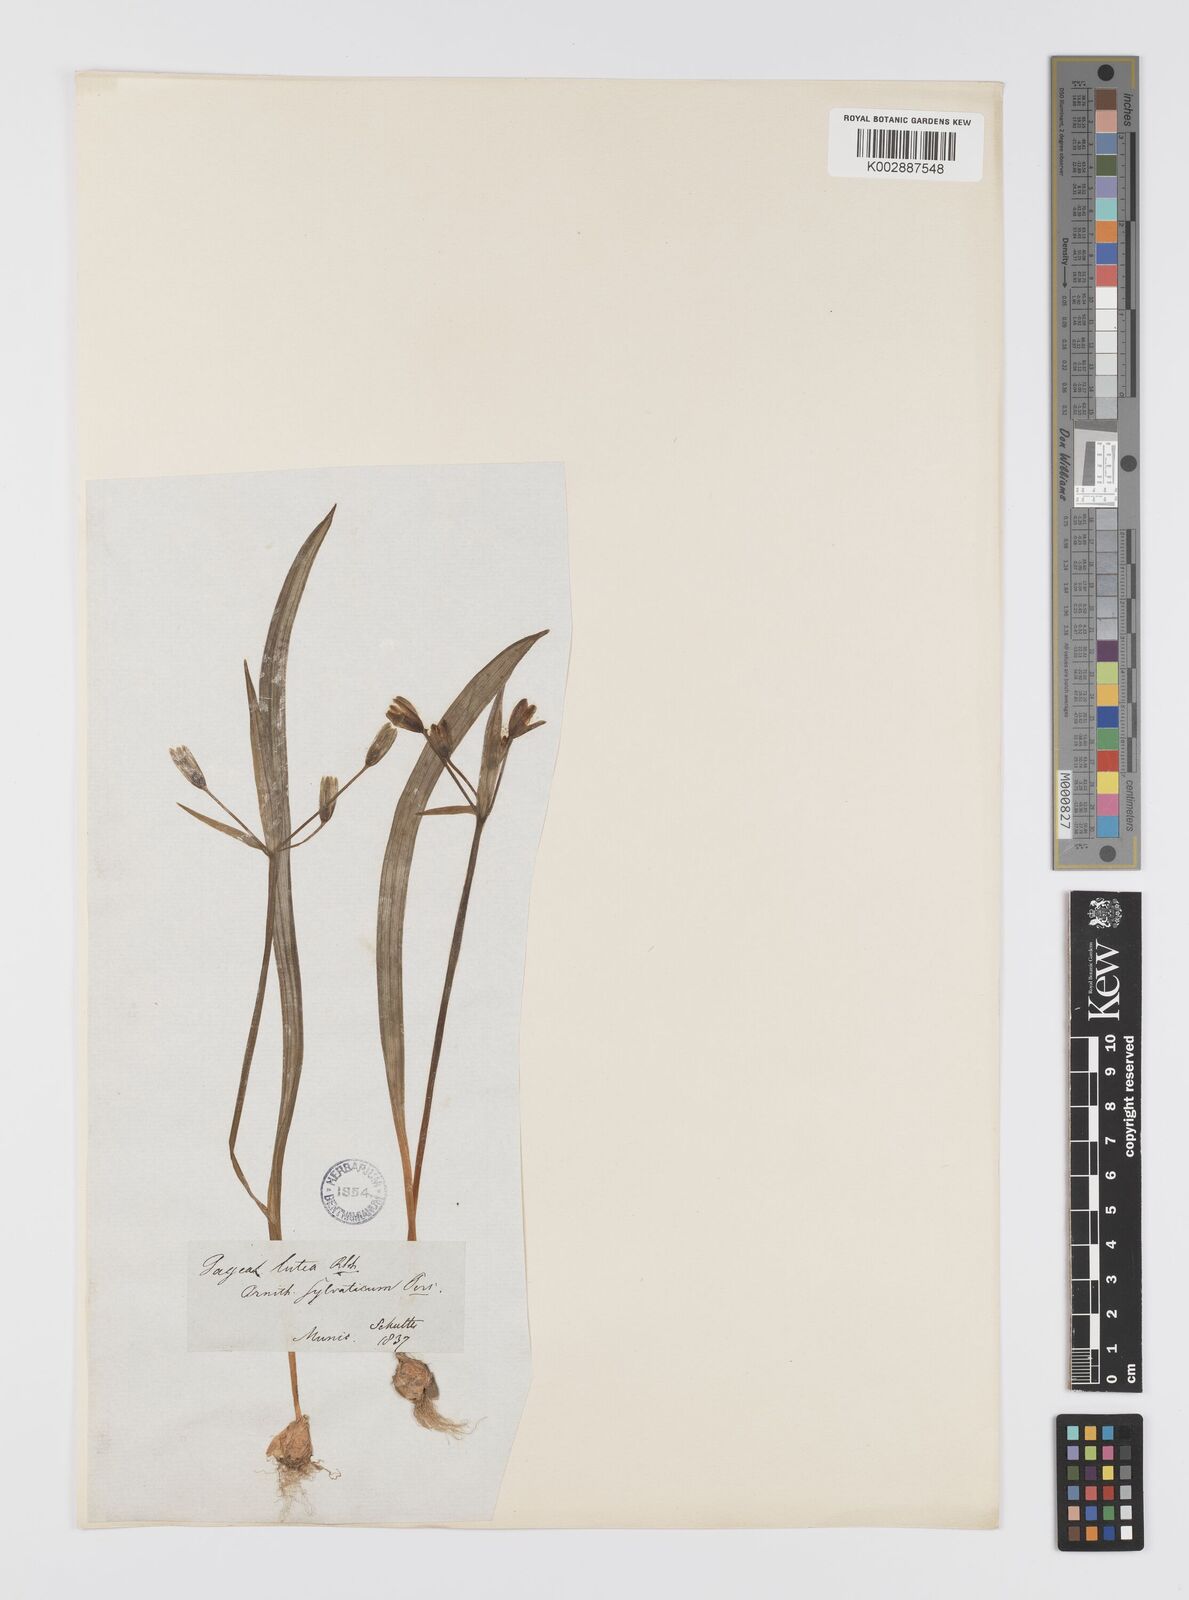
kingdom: Plantae
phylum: Tracheophyta
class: Liliopsida
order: Liliales
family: Liliaceae
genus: Gagea
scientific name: Gagea lutea
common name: Yellow star-of-bethlehem
